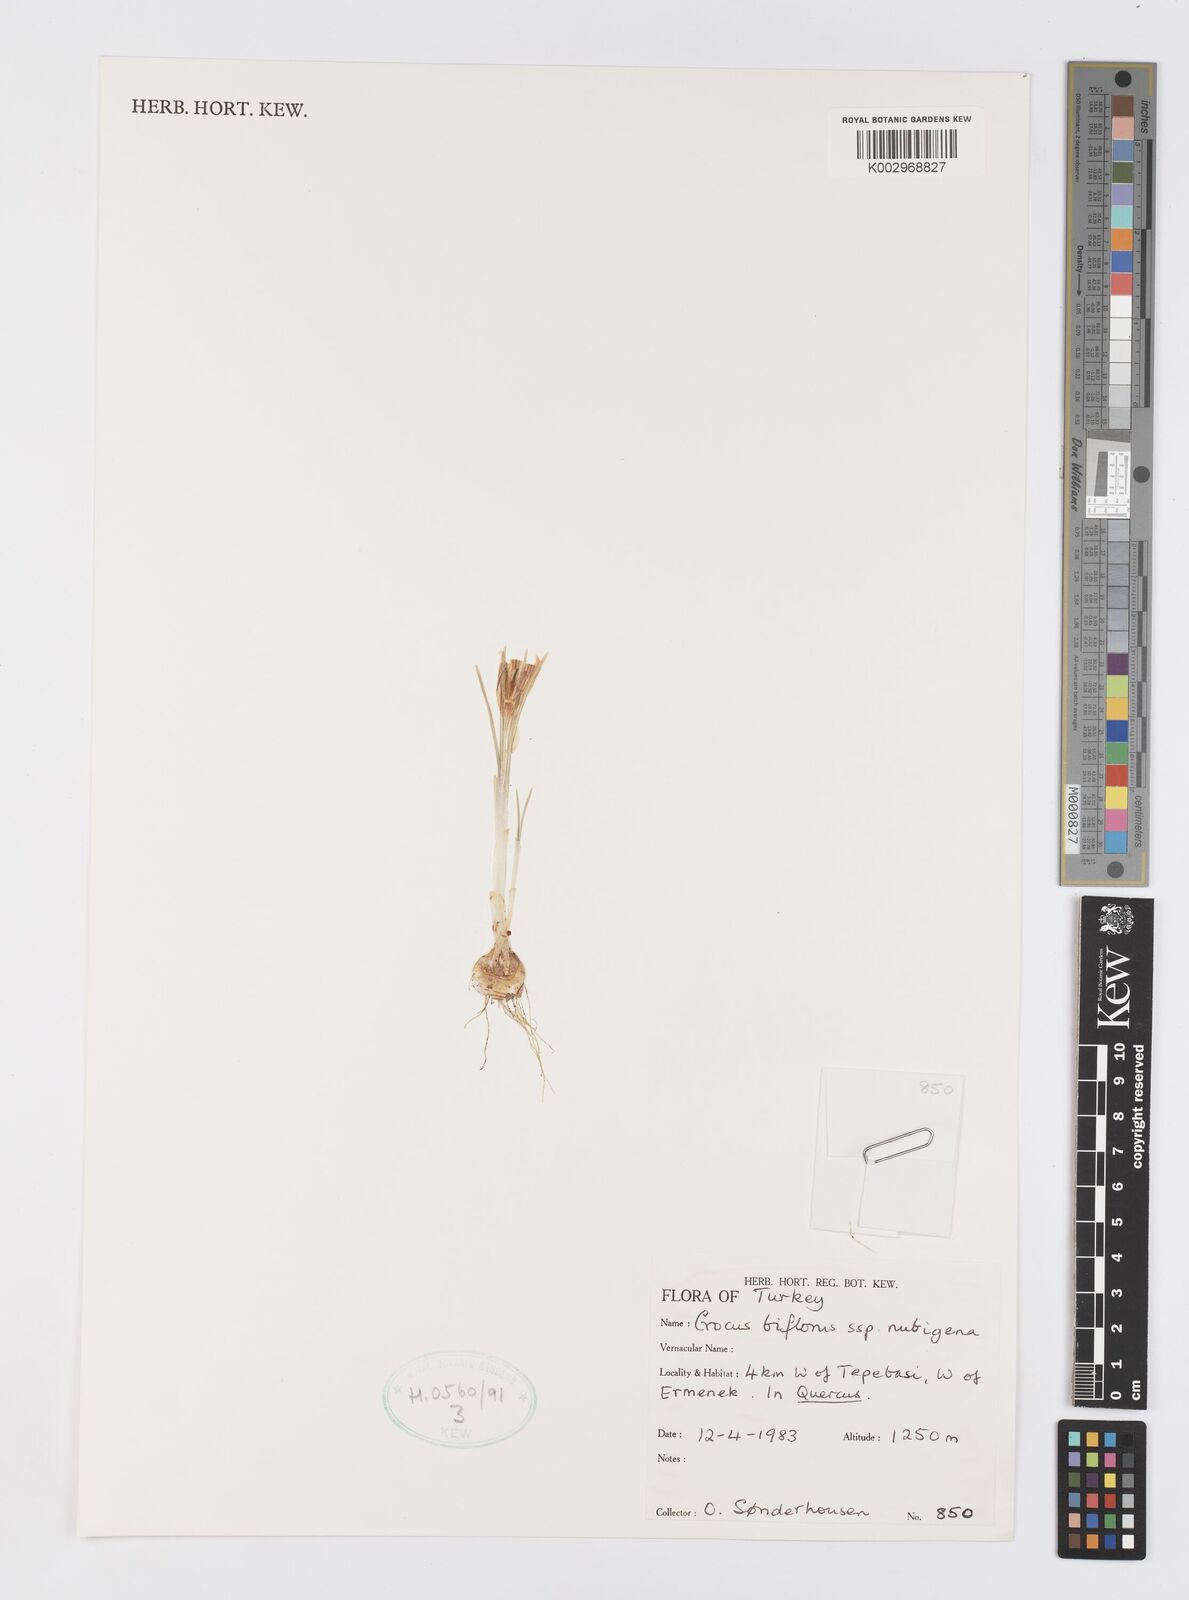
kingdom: Plantae
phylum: Tracheophyta
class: Liliopsida
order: Asparagales
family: Iridaceae
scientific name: Iridaceae
